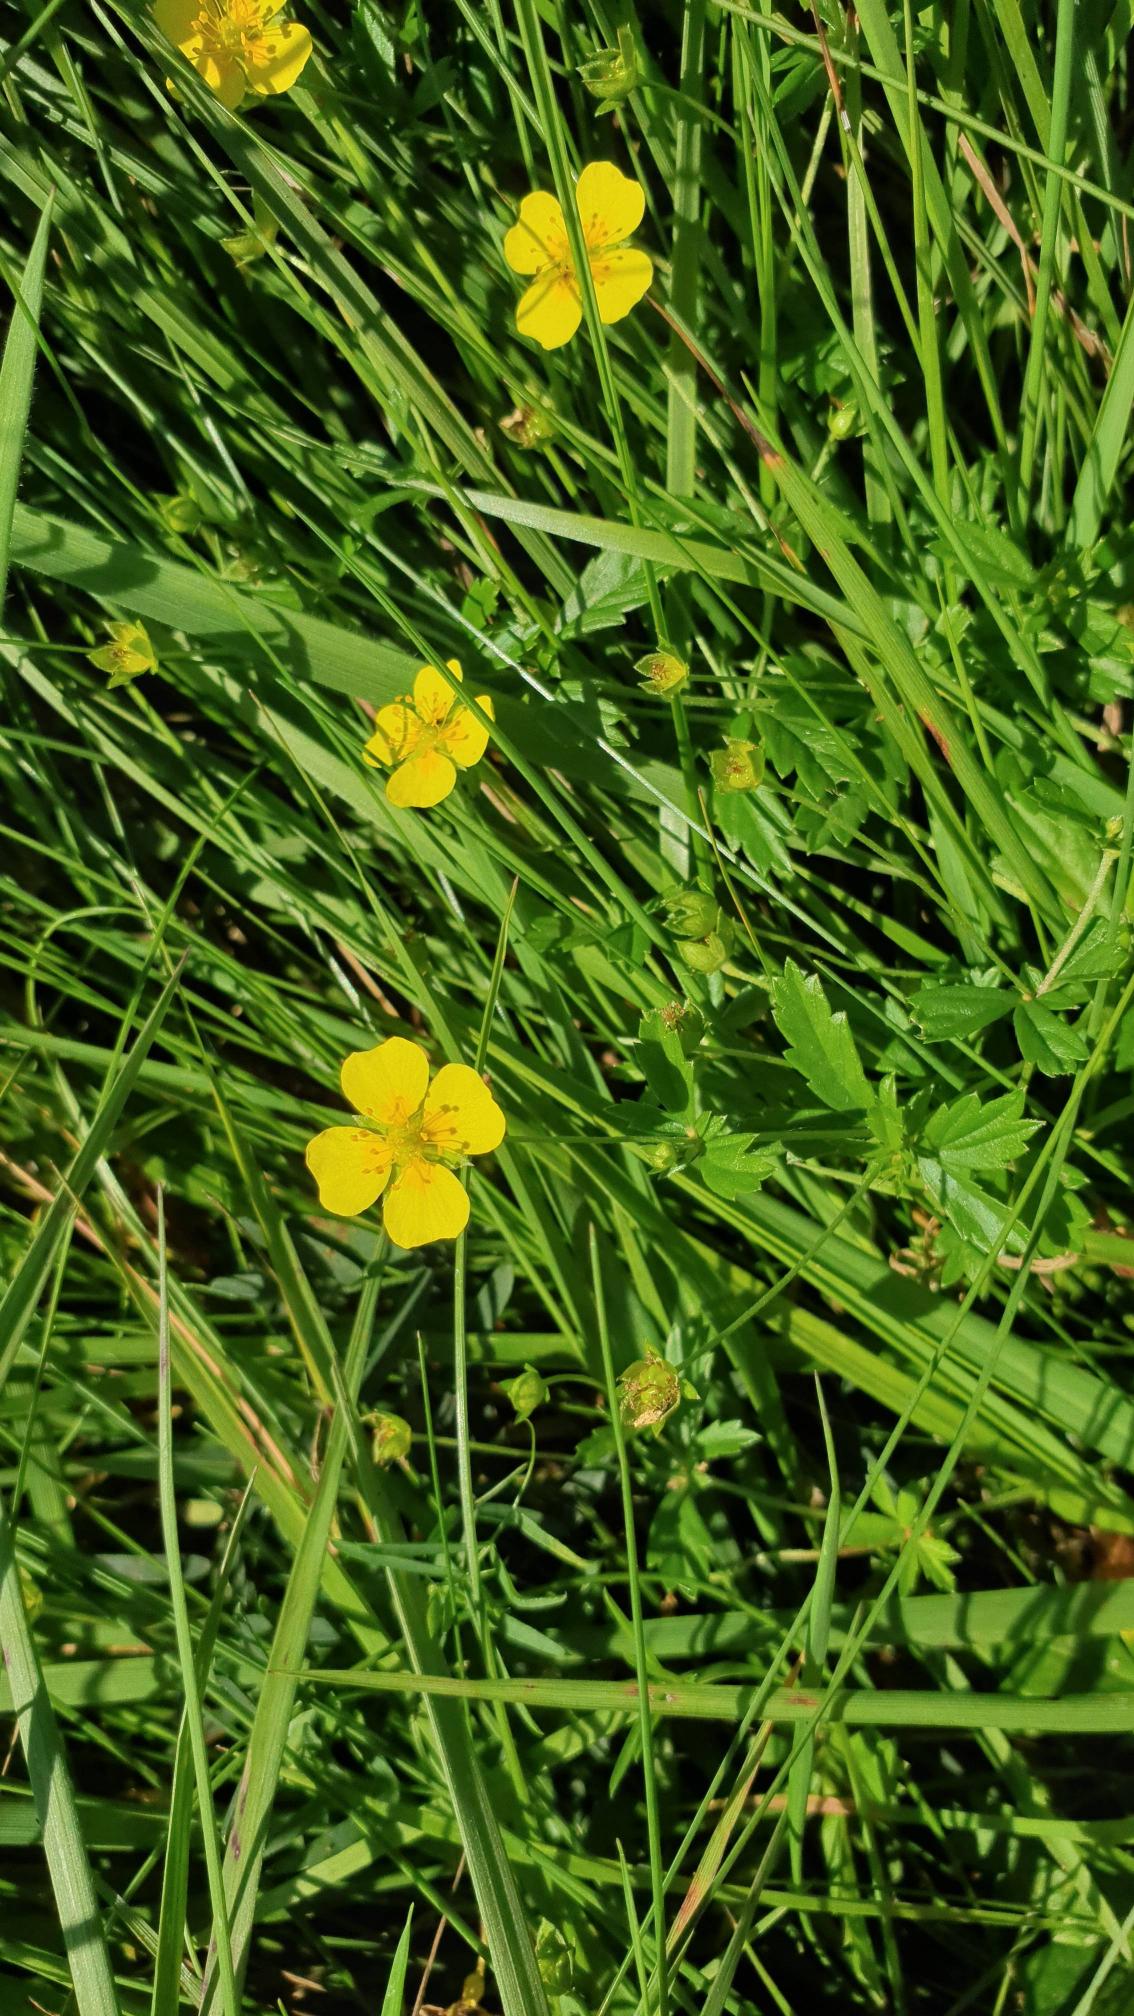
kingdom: Plantae
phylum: Tracheophyta
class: Magnoliopsida
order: Rosales
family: Rosaceae
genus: Potentilla
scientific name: Potentilla erecta
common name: Tormentil
